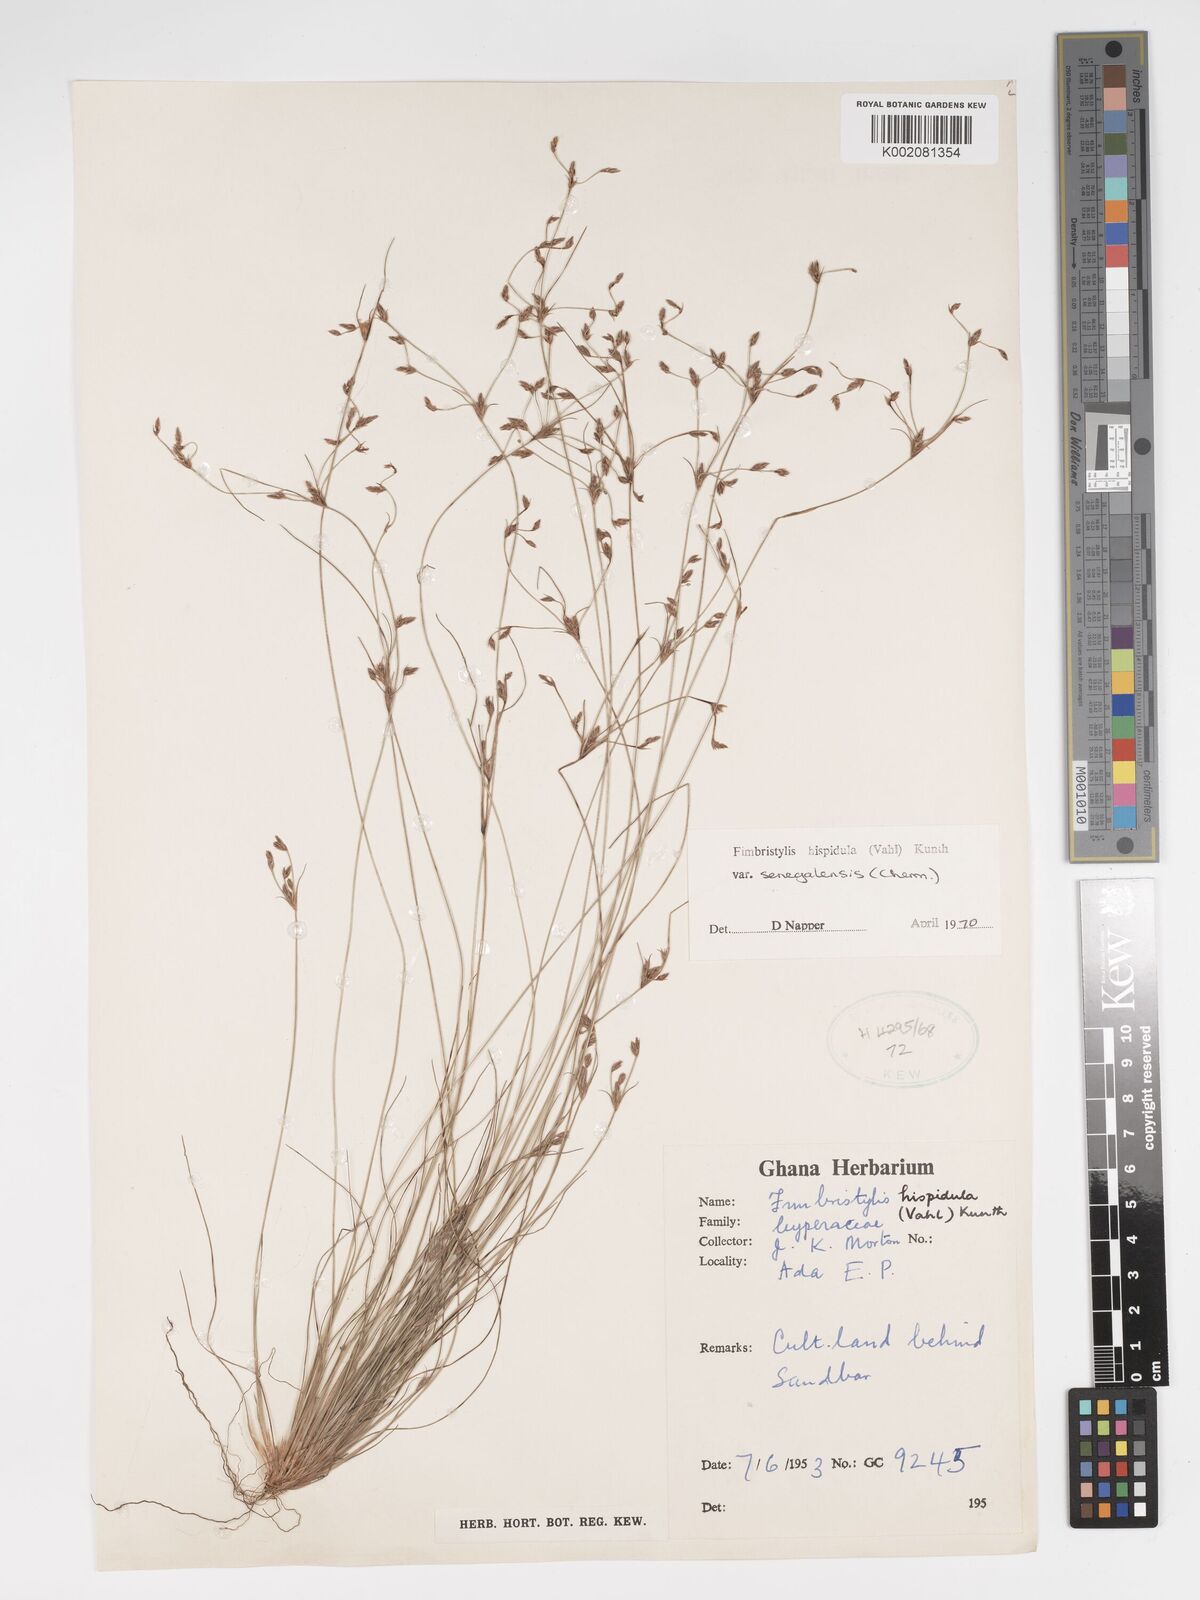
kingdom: Plantae
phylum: Tracheophyta
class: Liliopsida
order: Poales
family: Cyperaceae
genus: Bulbostylis
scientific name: Bulbostylis hispidula
